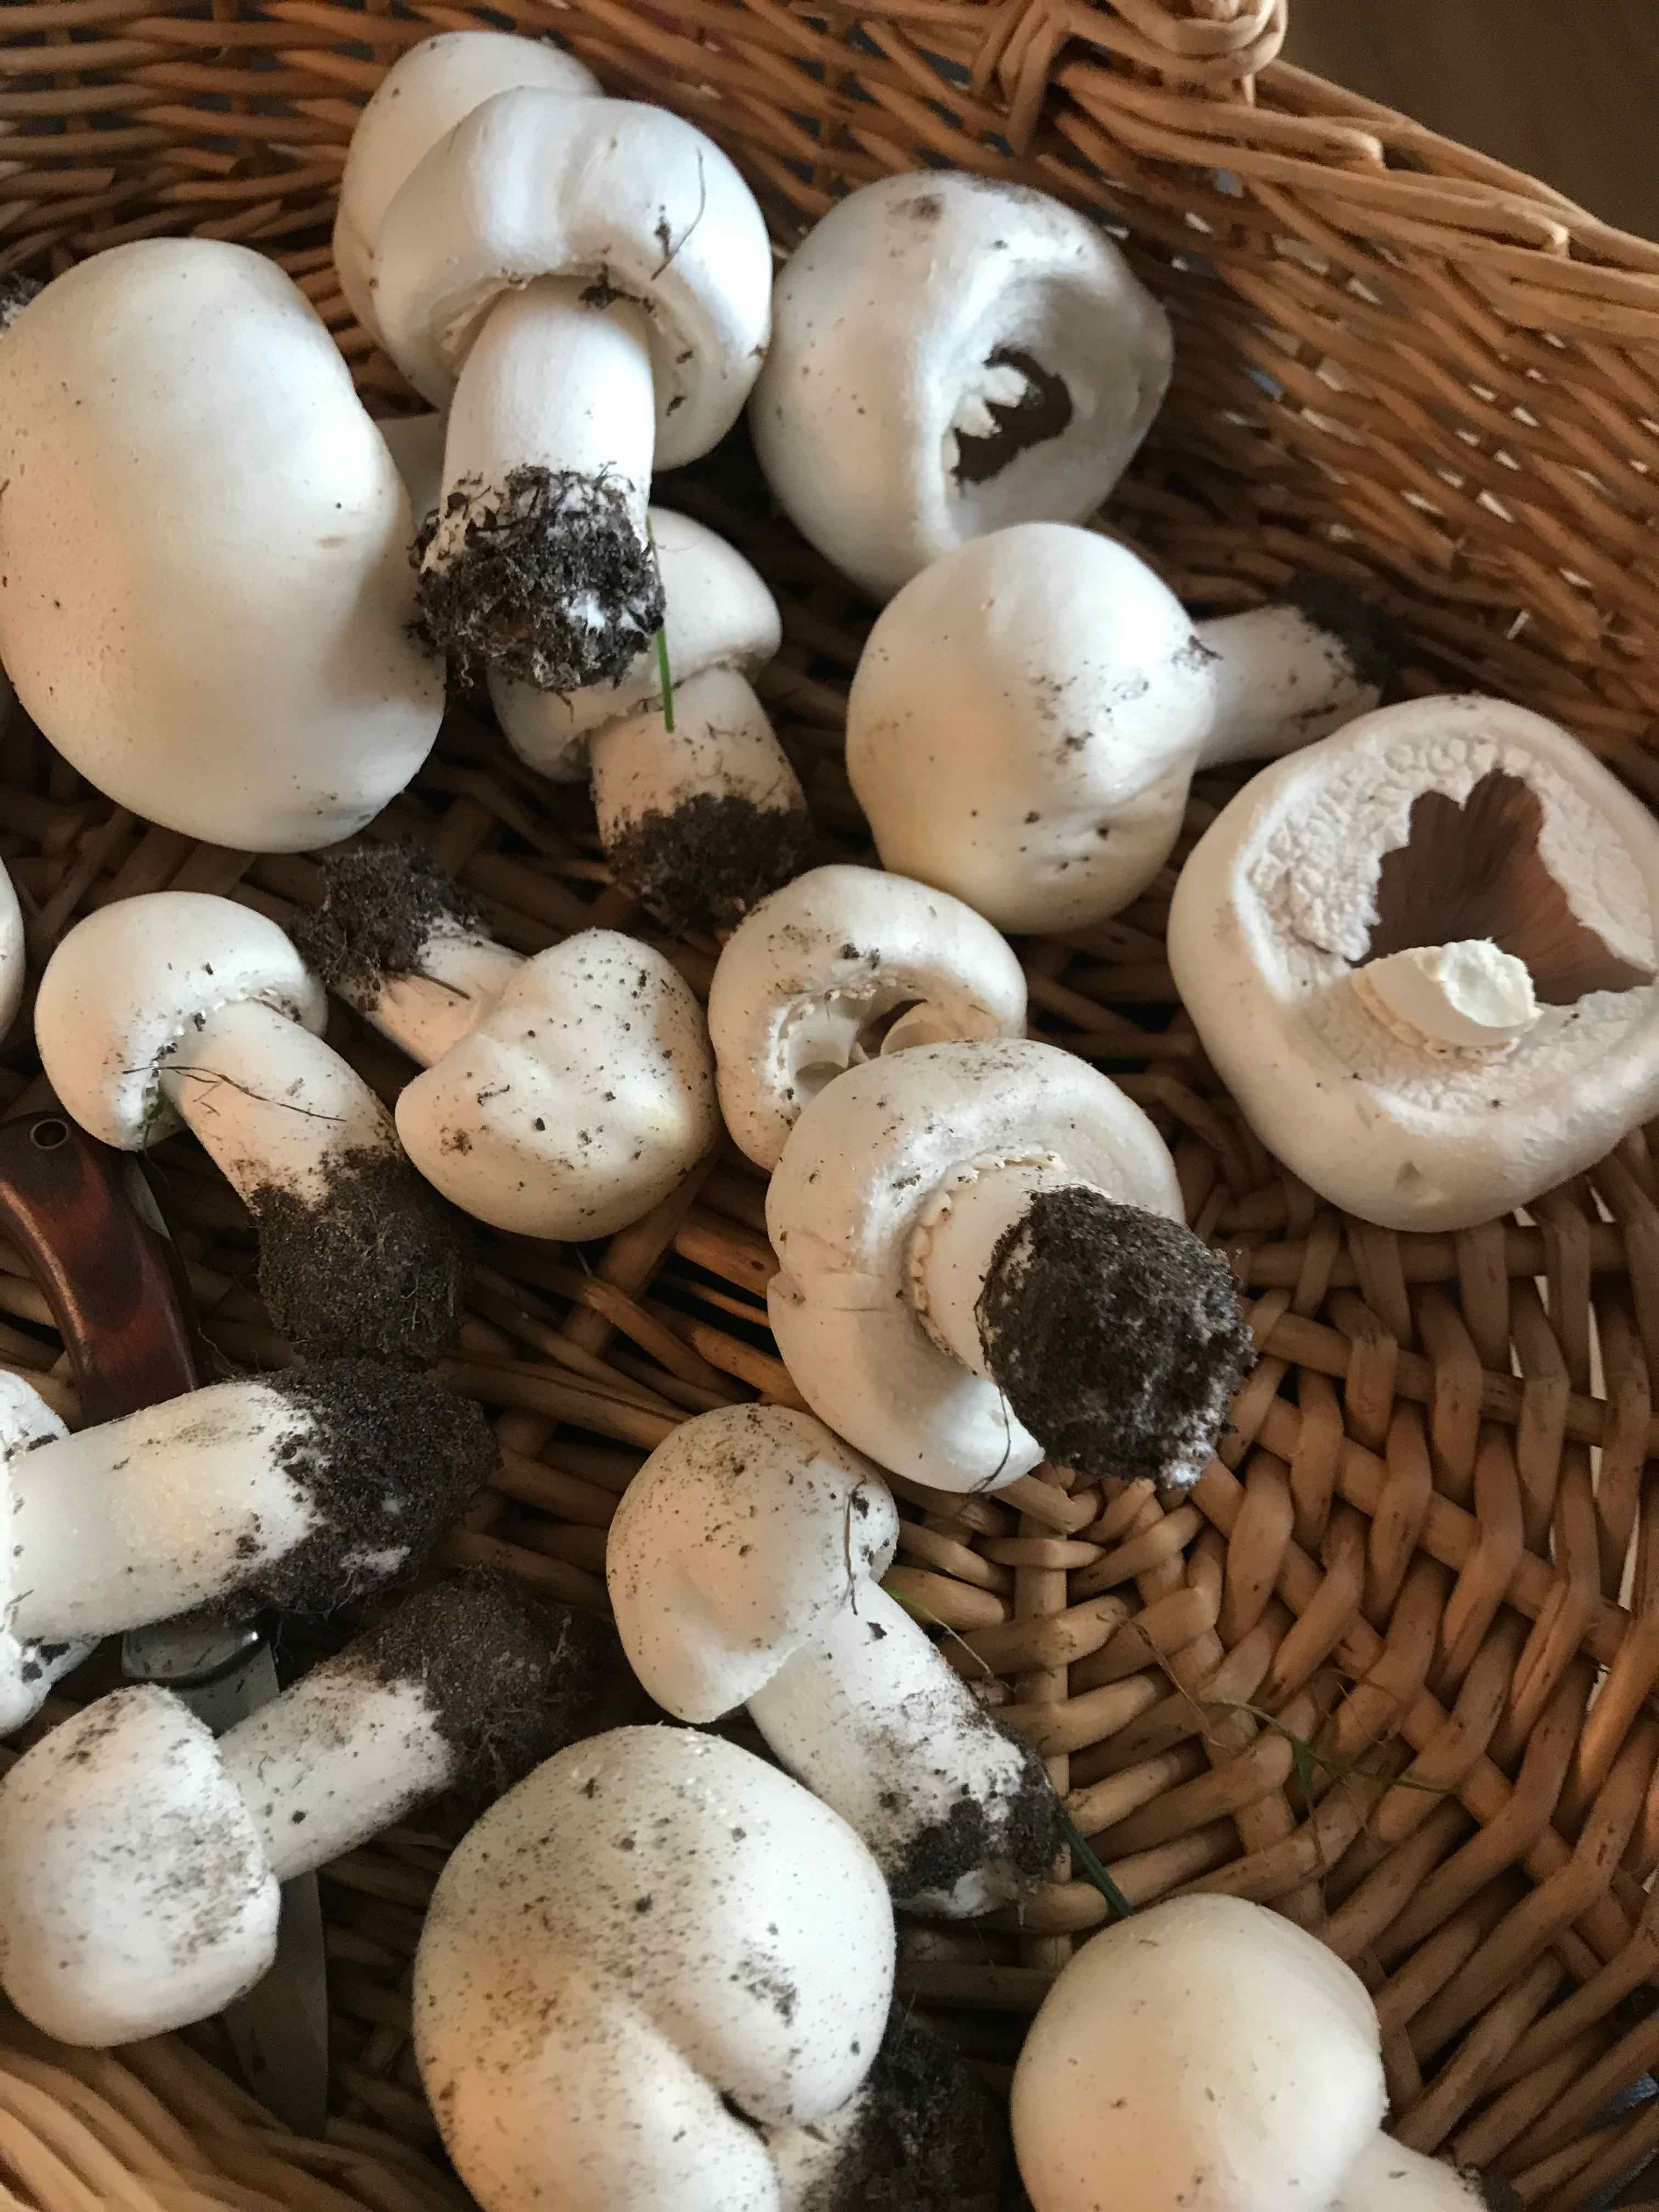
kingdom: Fungi
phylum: Basidiomycota
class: Agaricomycetes
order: Agaricales
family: Agaricaceae
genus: Agaricus
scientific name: Agaricus
